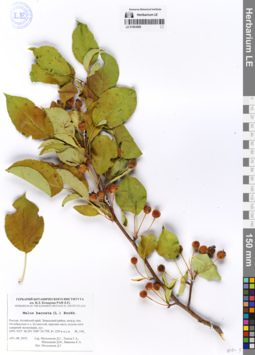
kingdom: Plantae
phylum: Tracheophyta
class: Magnoliopsida
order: Rosales
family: Rosaceae
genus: Malus
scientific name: Malus baccata
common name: Siberian crab
